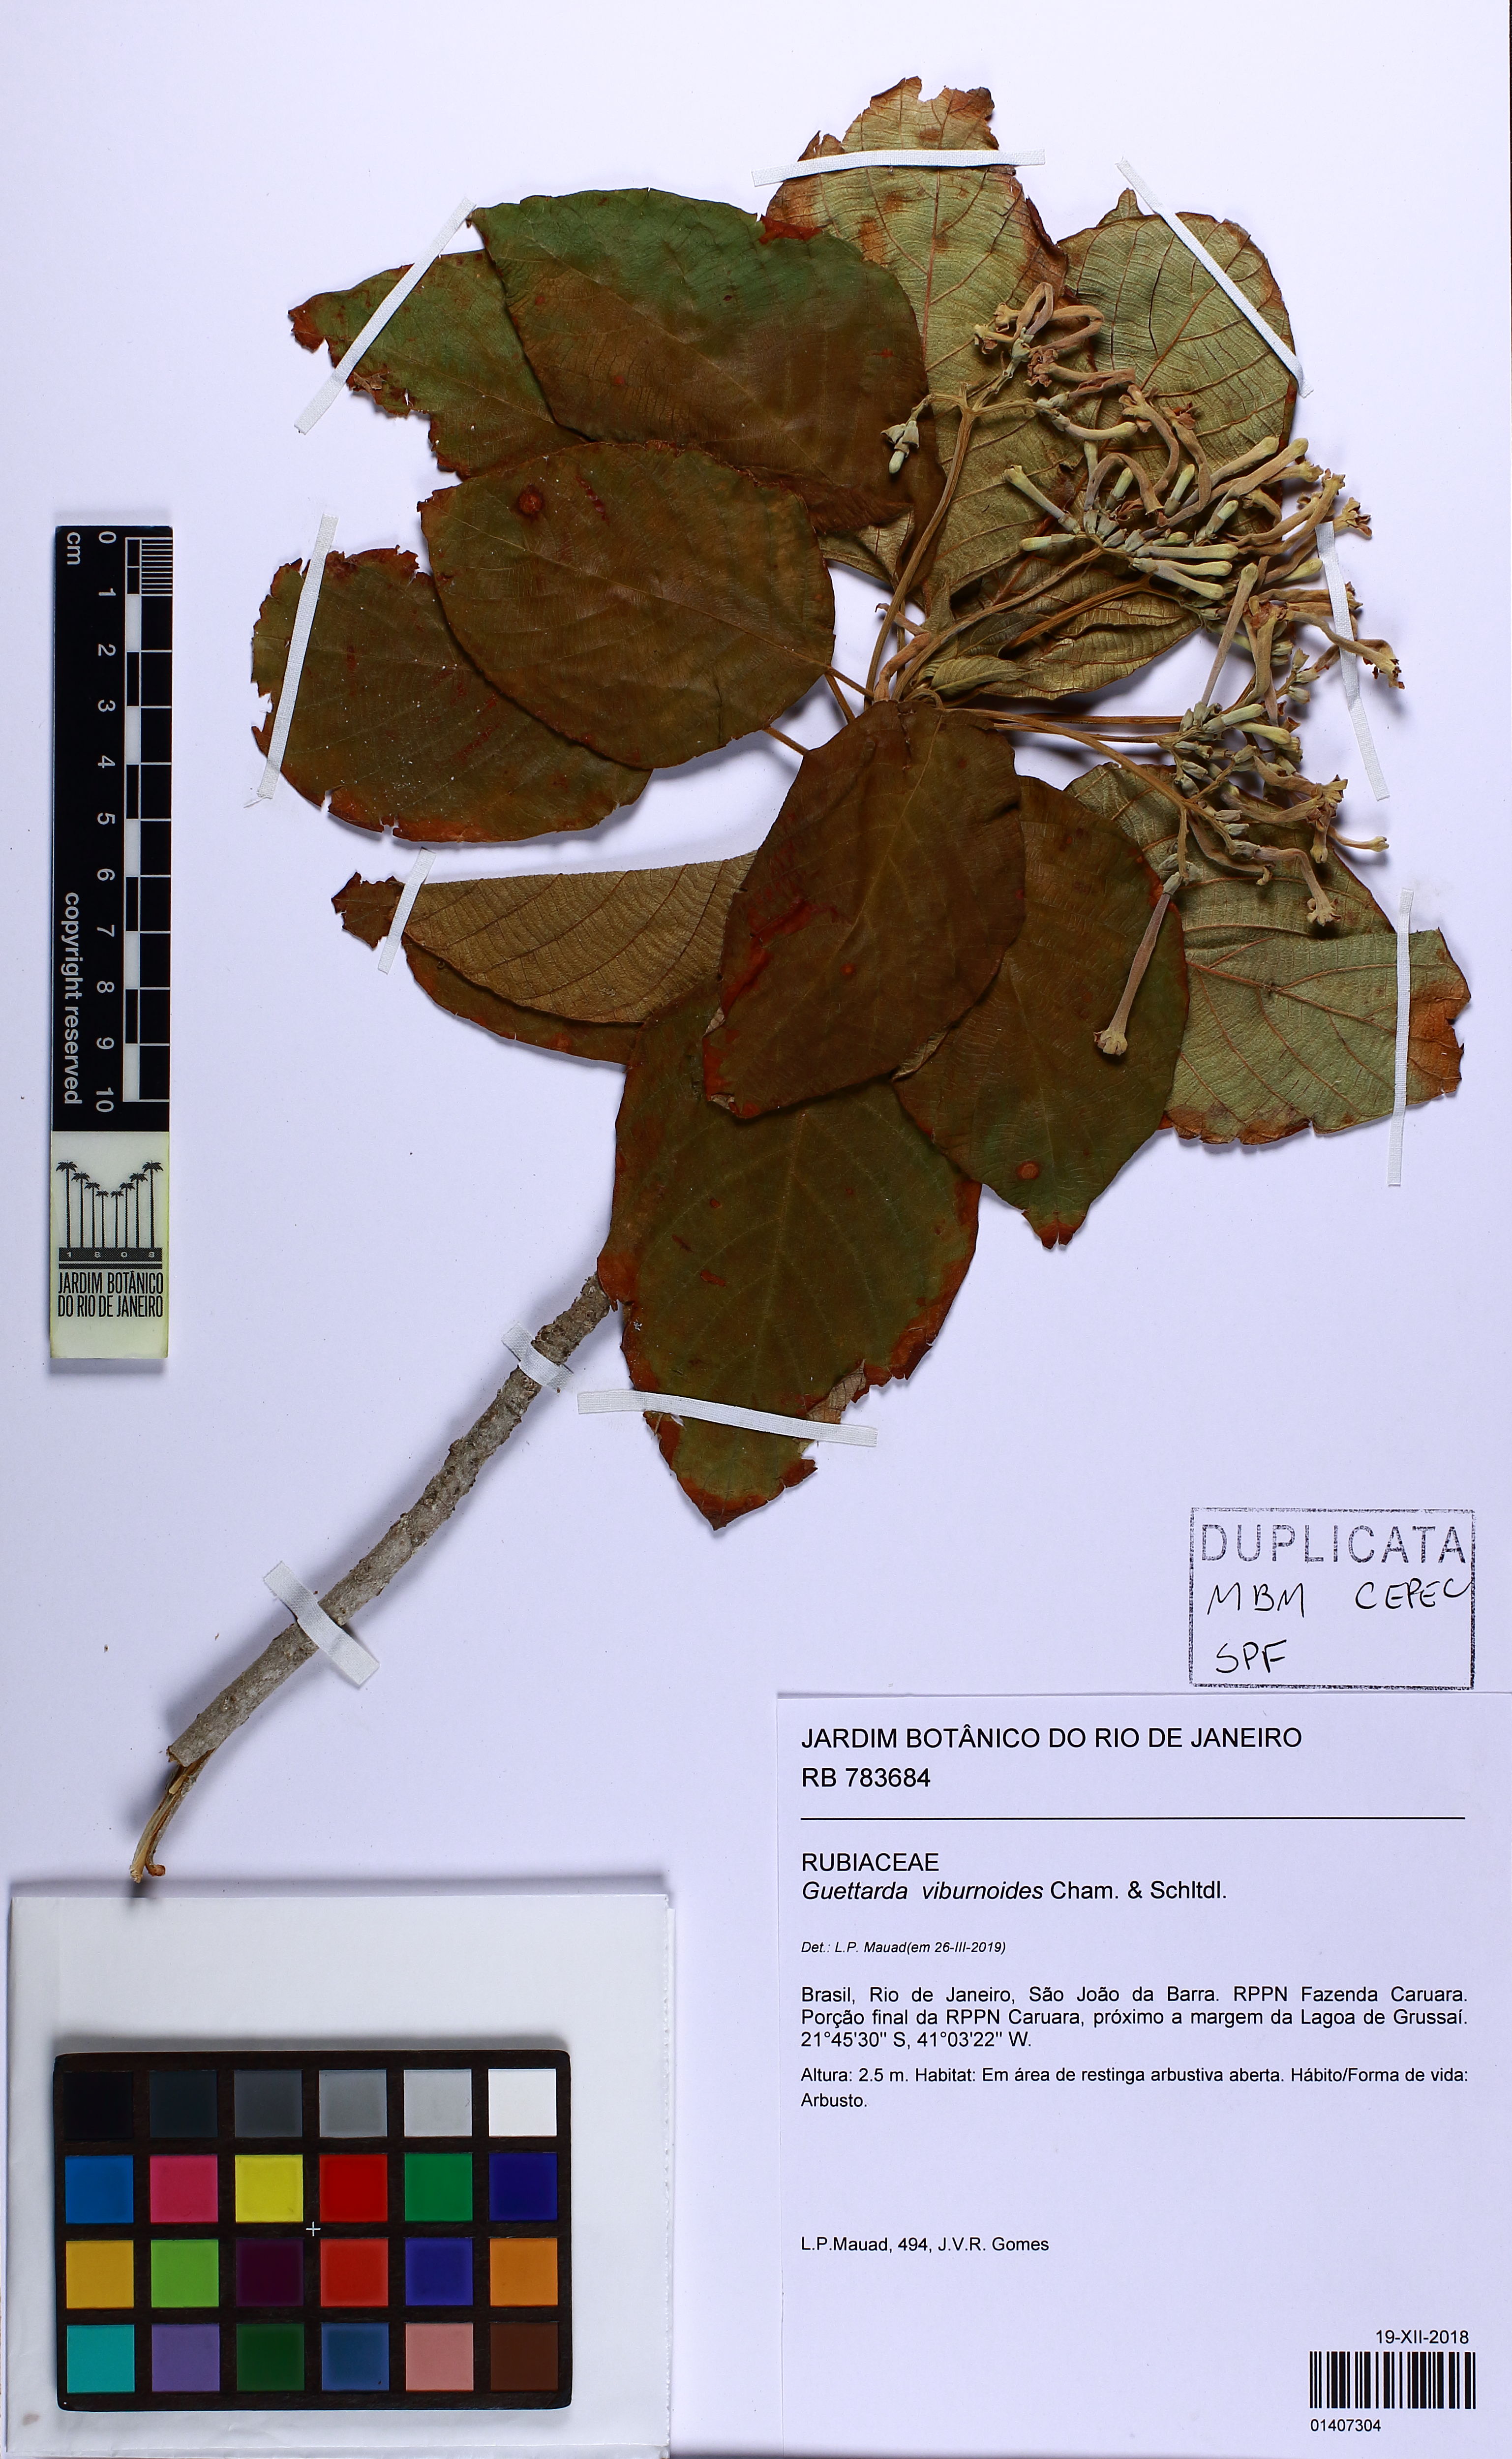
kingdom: Plantae
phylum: Tracheophyta
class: Magnoliopsida
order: Gentianales
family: Rubiaceae
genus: Guettarda
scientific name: Guettarda viburnoides
